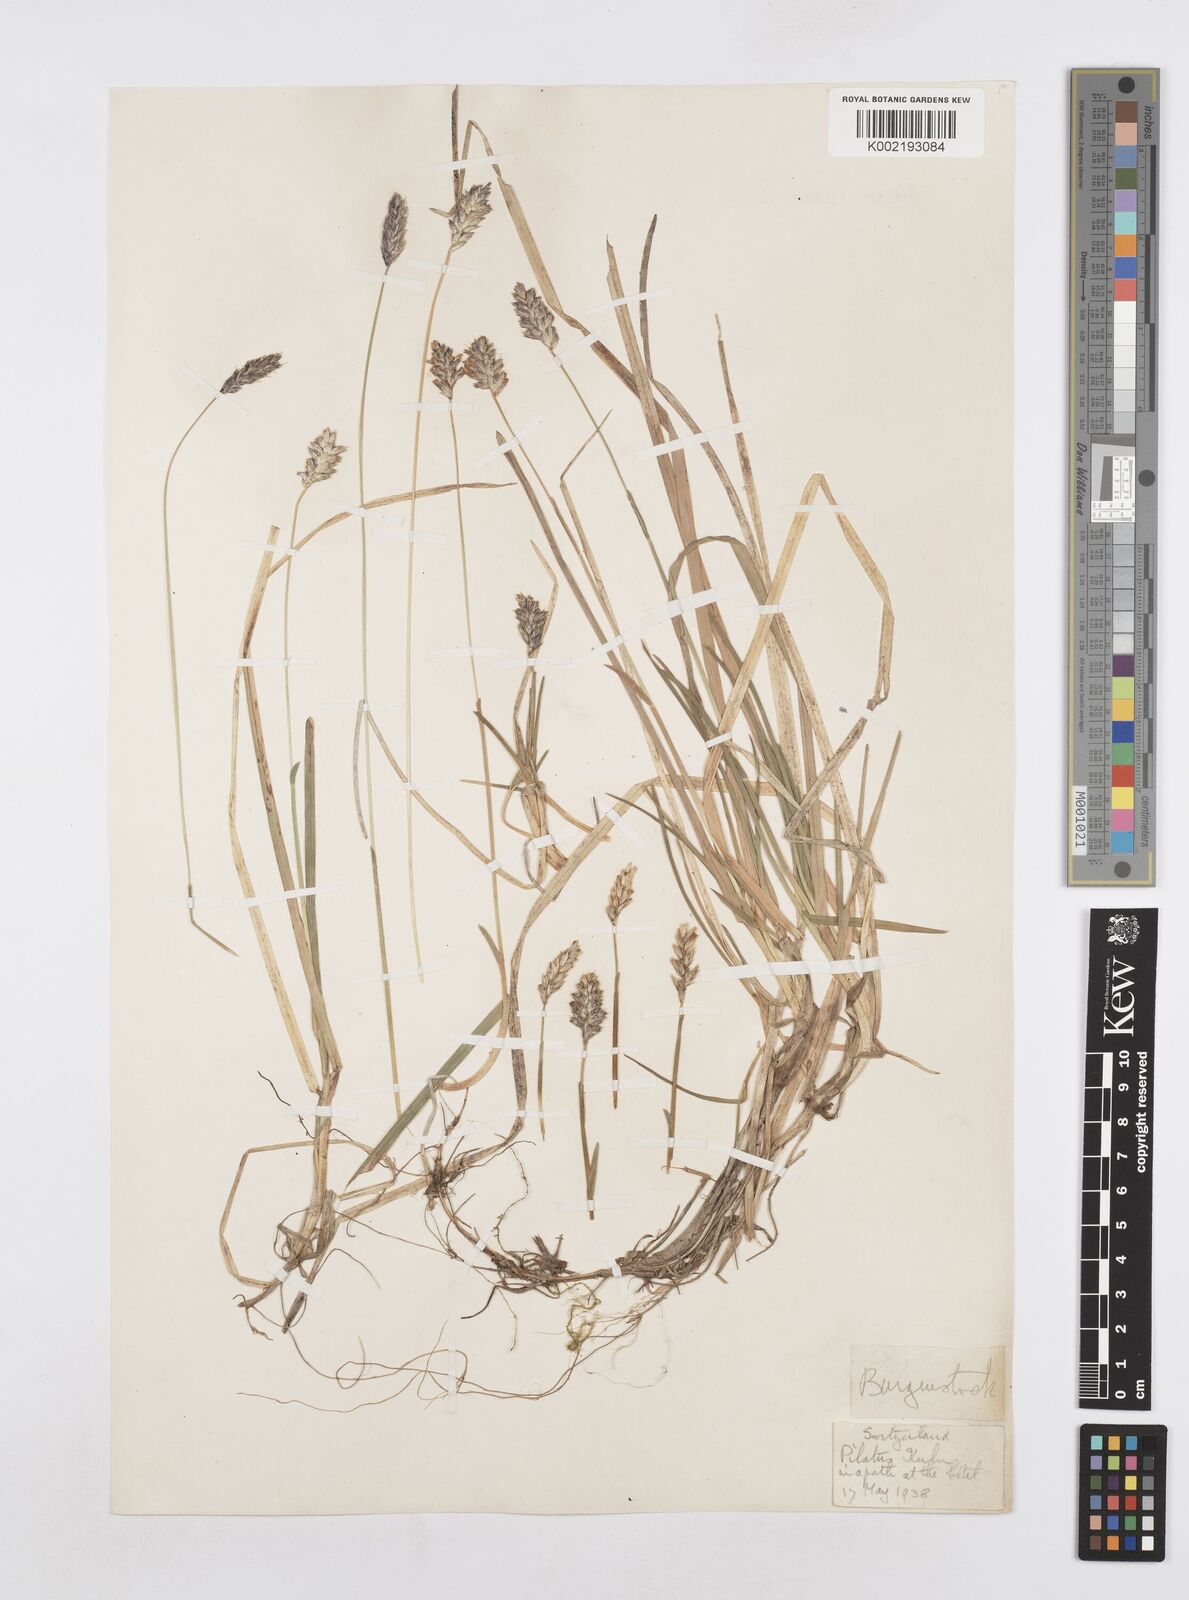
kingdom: Plantae
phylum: Tracheophyta
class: Liliopsida
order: Poales
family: Poaceae
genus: Sesleria
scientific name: Sesleria
